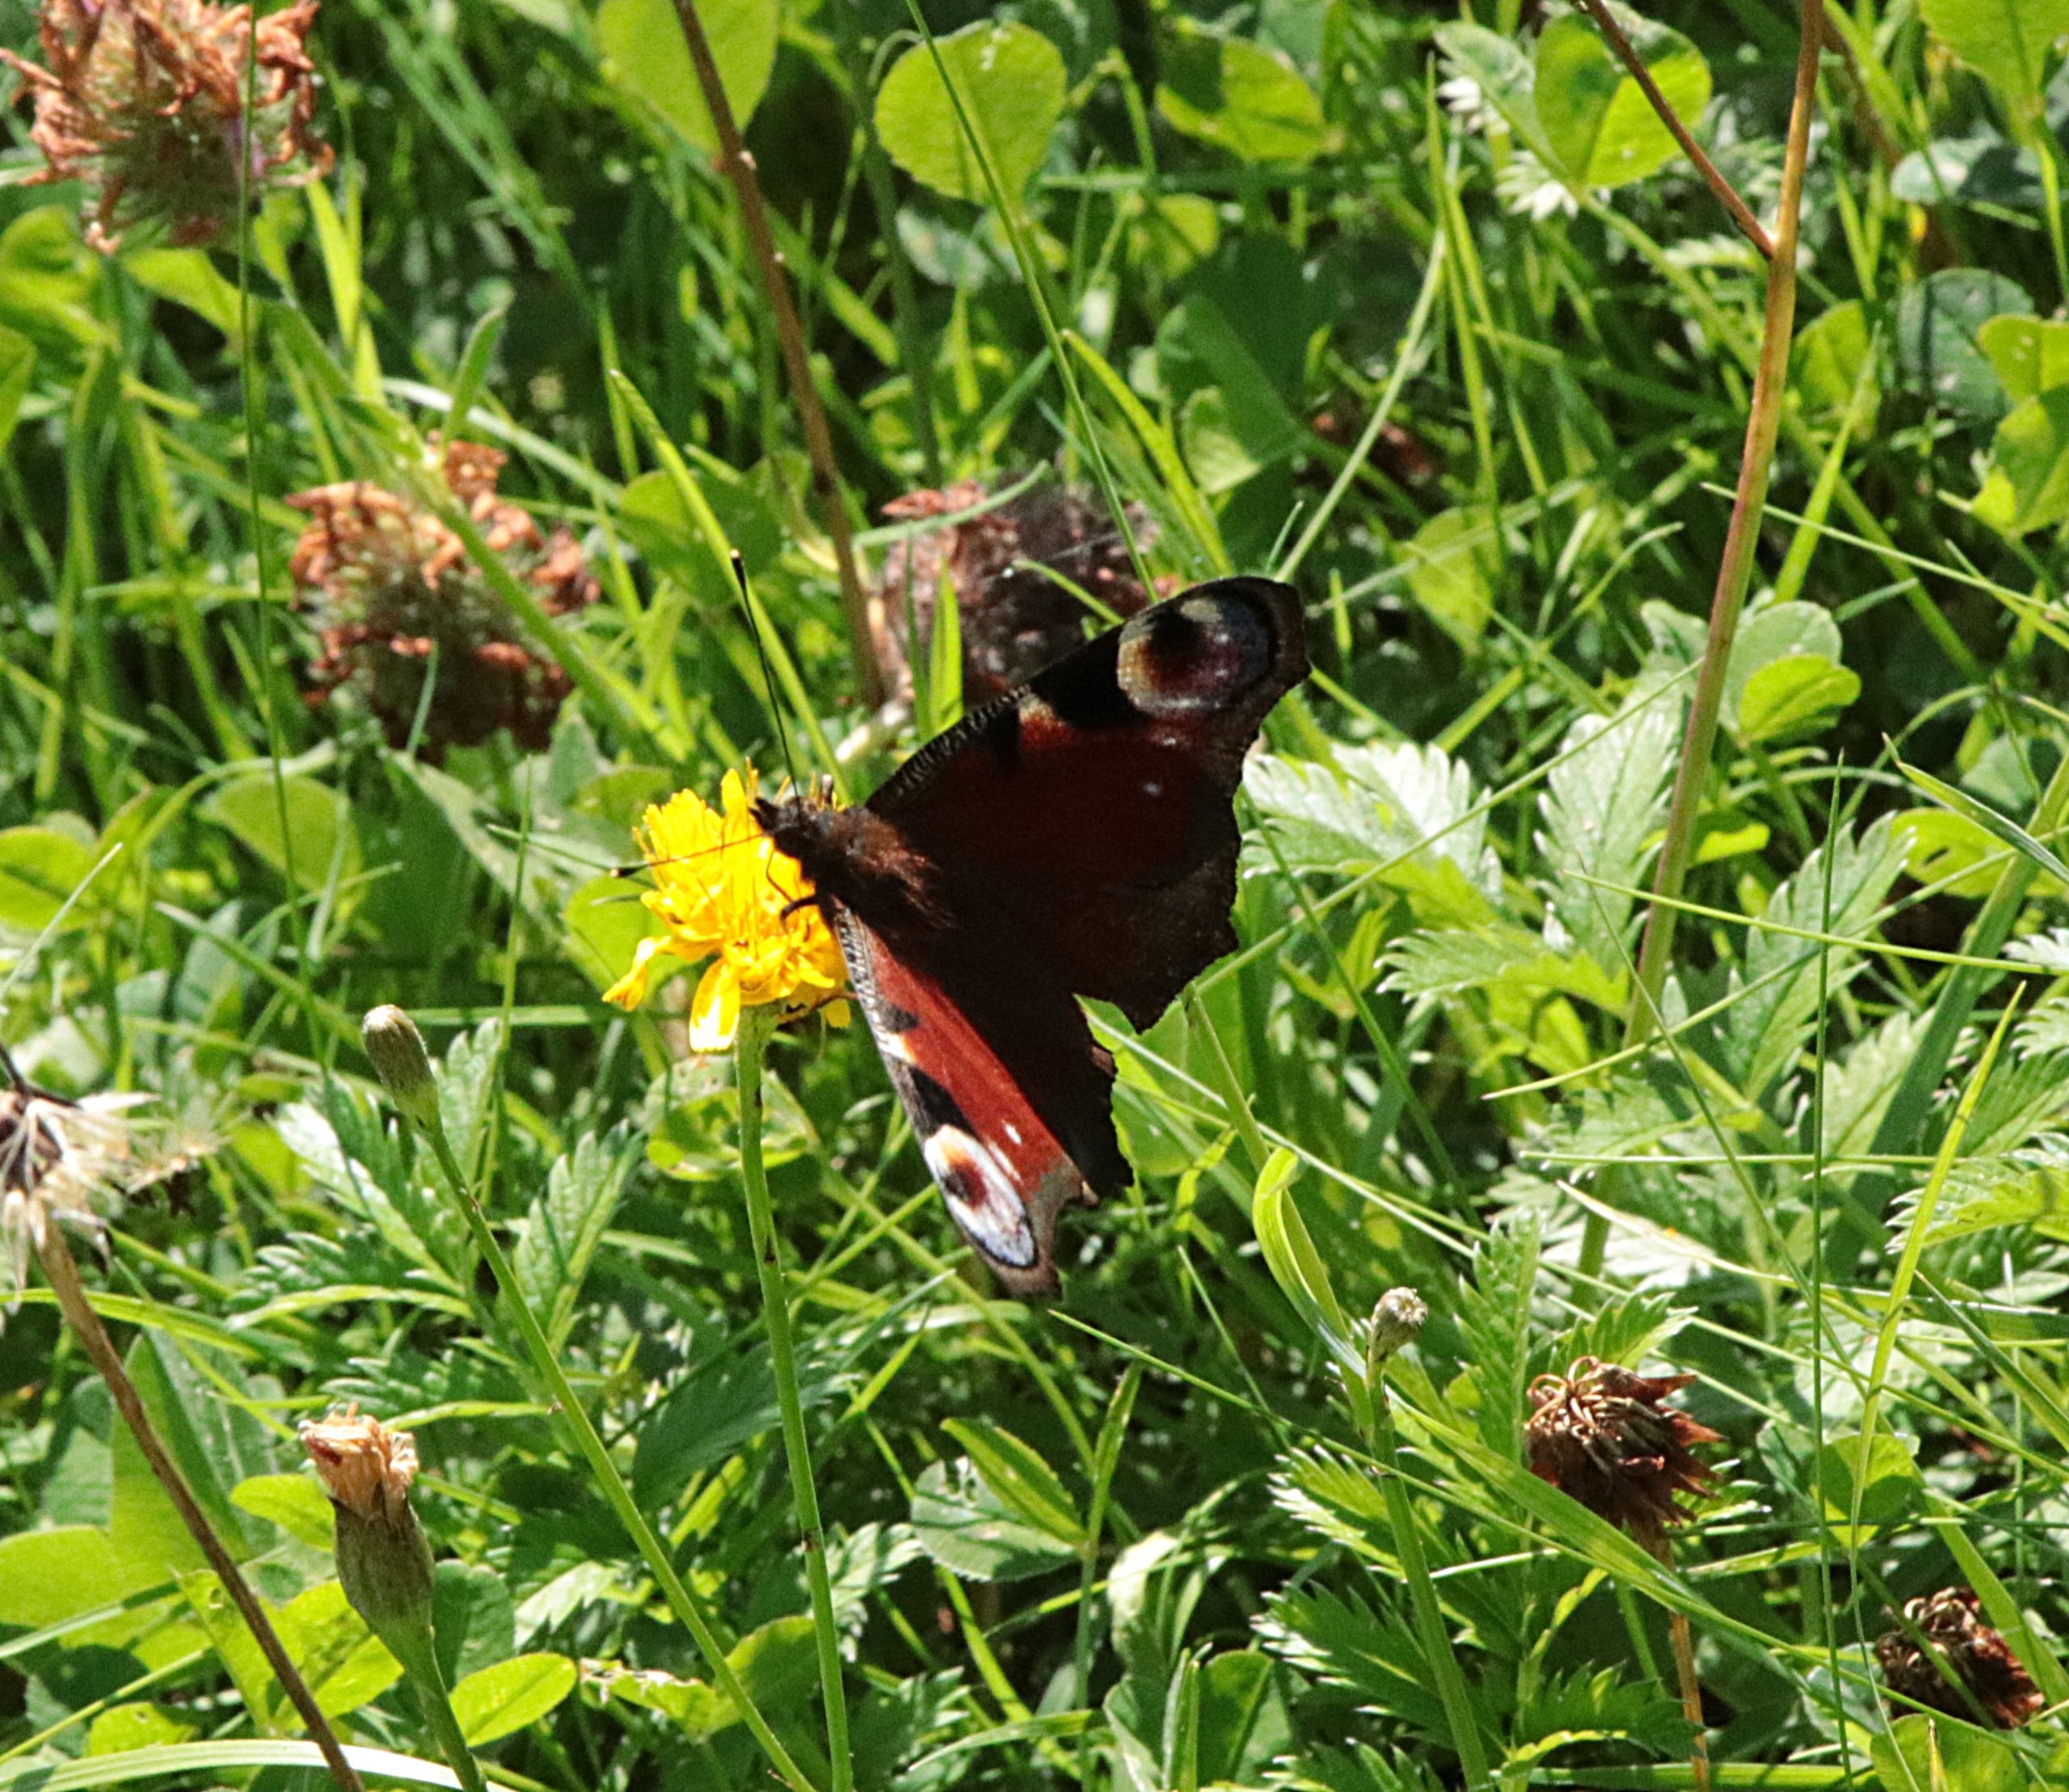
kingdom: Animalia
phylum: Arthropoda
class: Insecta
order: Lepidoptera
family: Nymphalidae
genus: Aglais
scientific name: Aglais io
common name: Dagpåfugleøje
